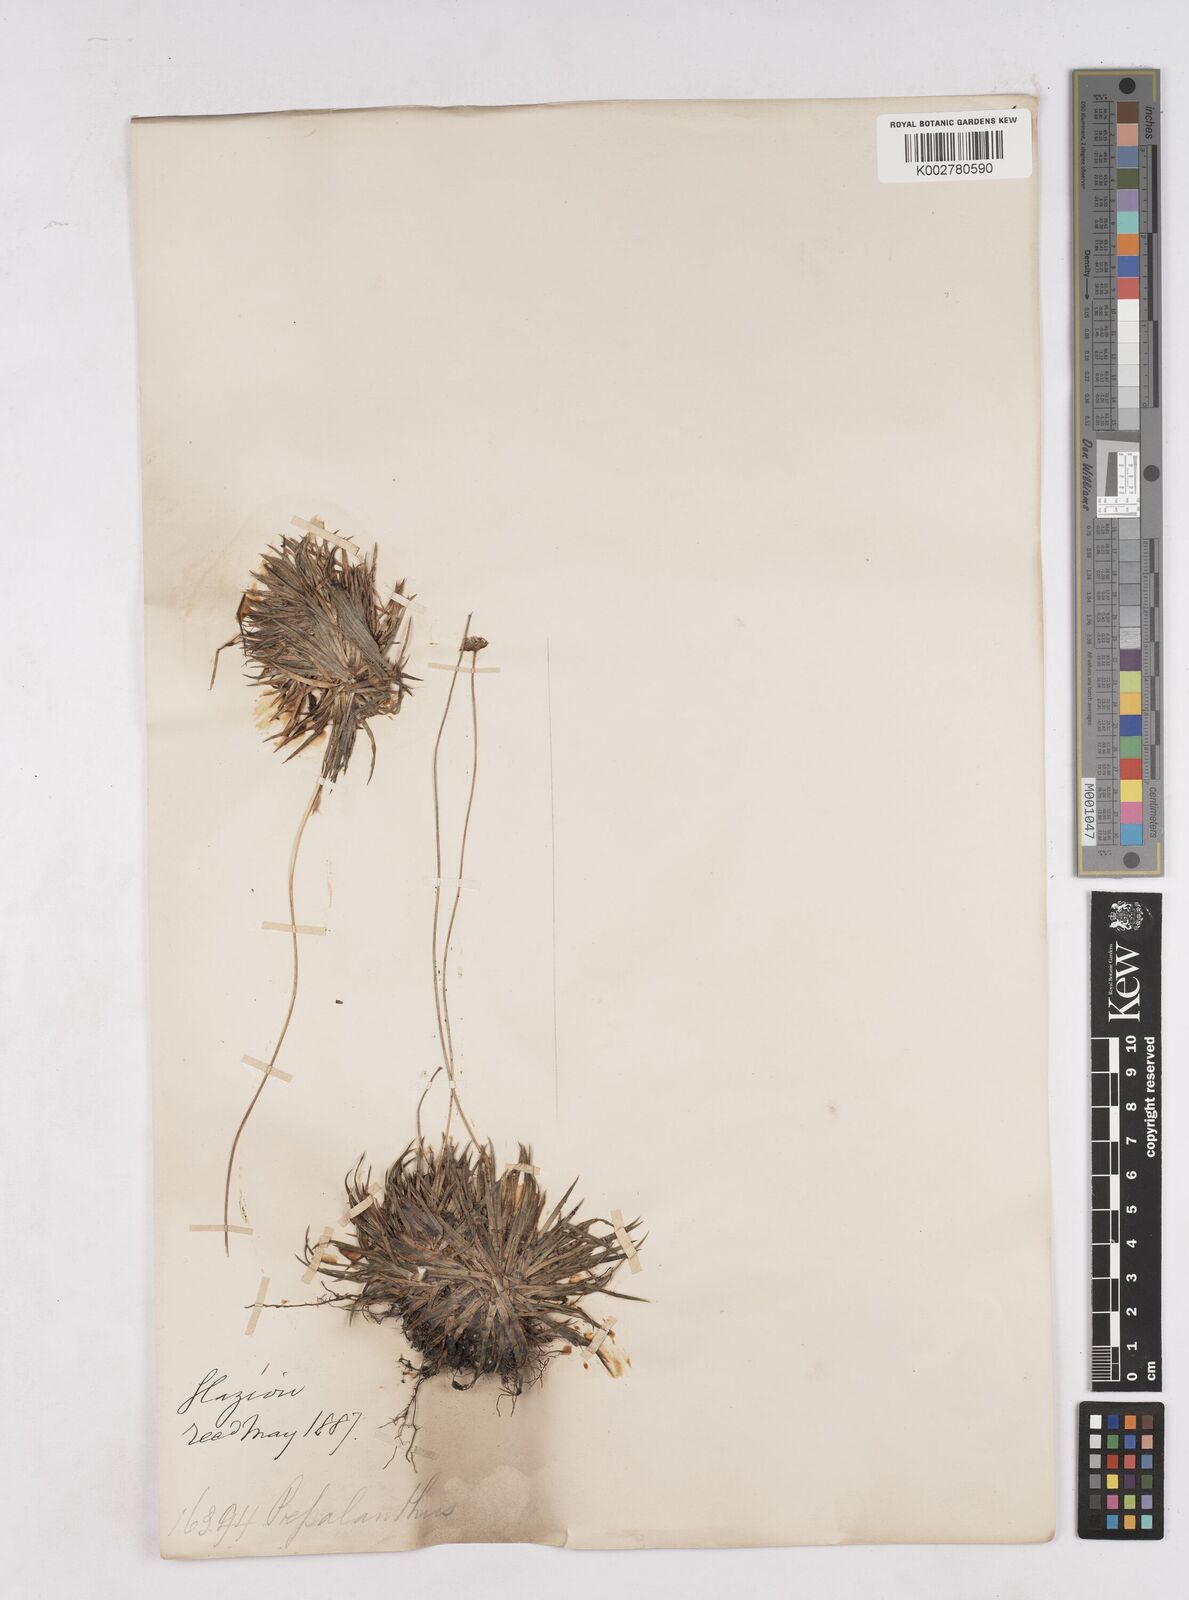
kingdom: Plantae
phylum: Tracheophyta
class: Liliopsida
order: Poales
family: Eriocaulaceae
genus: Paepalanthus
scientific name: Paepalanthus
